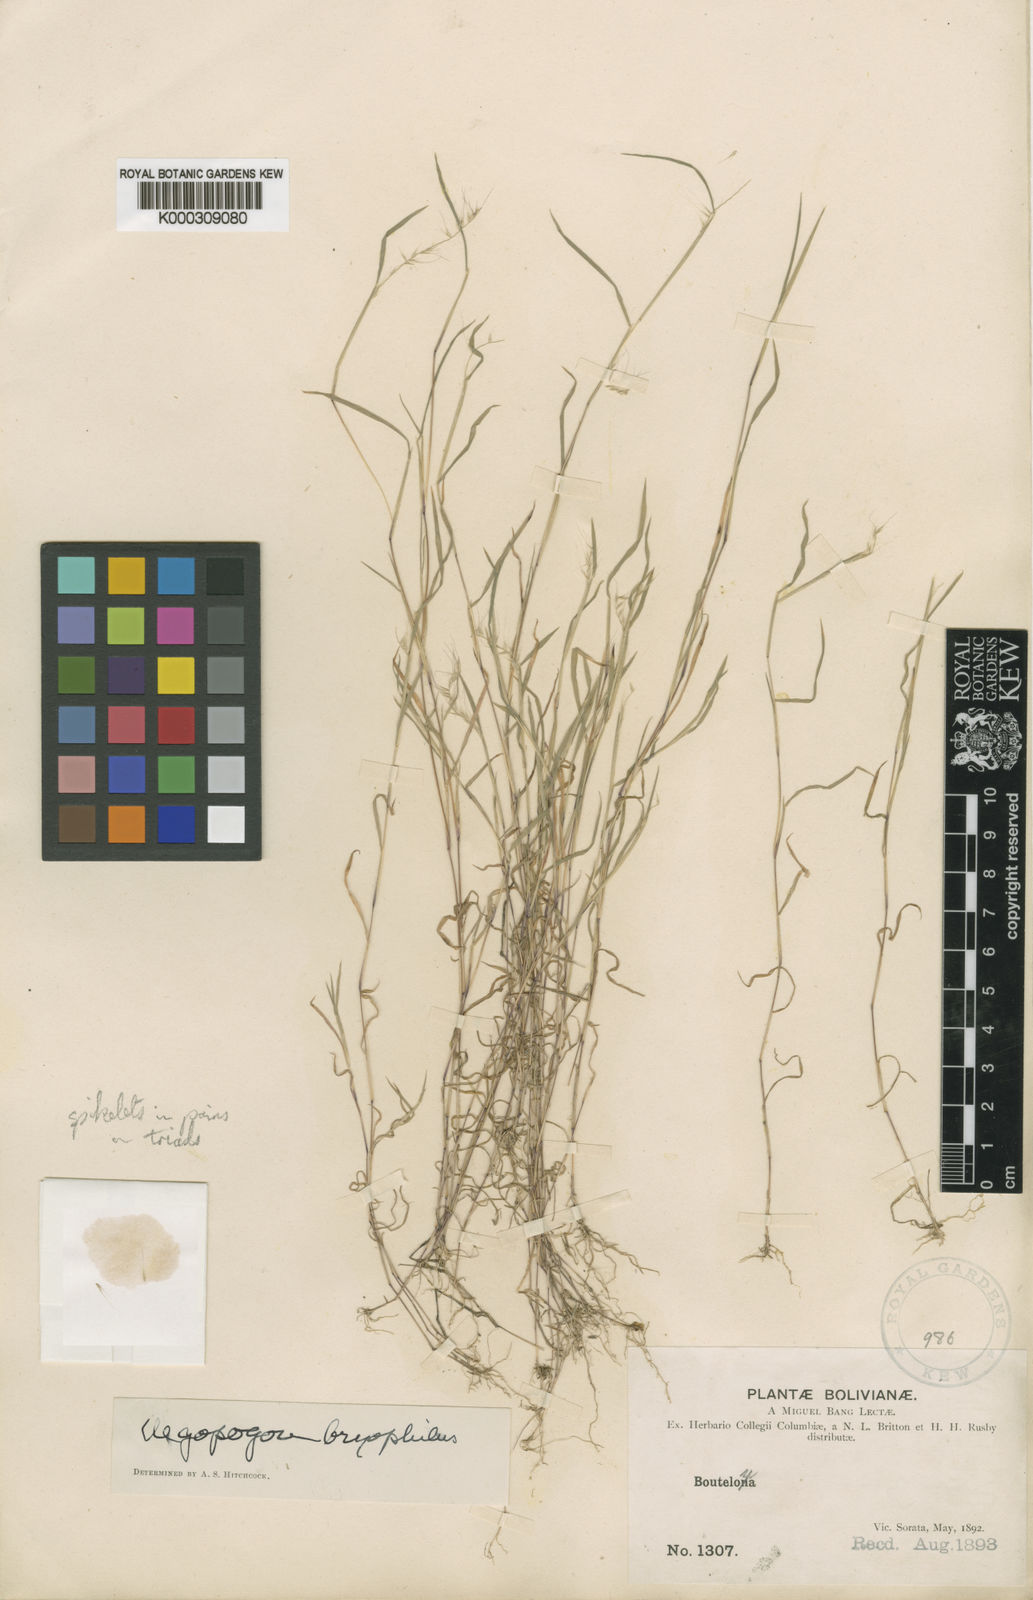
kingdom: Plantae
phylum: Tracheophyta
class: Liliopsida
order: Poales
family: Poaceae
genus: Muhlenbergia
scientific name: Muhlenbergia
